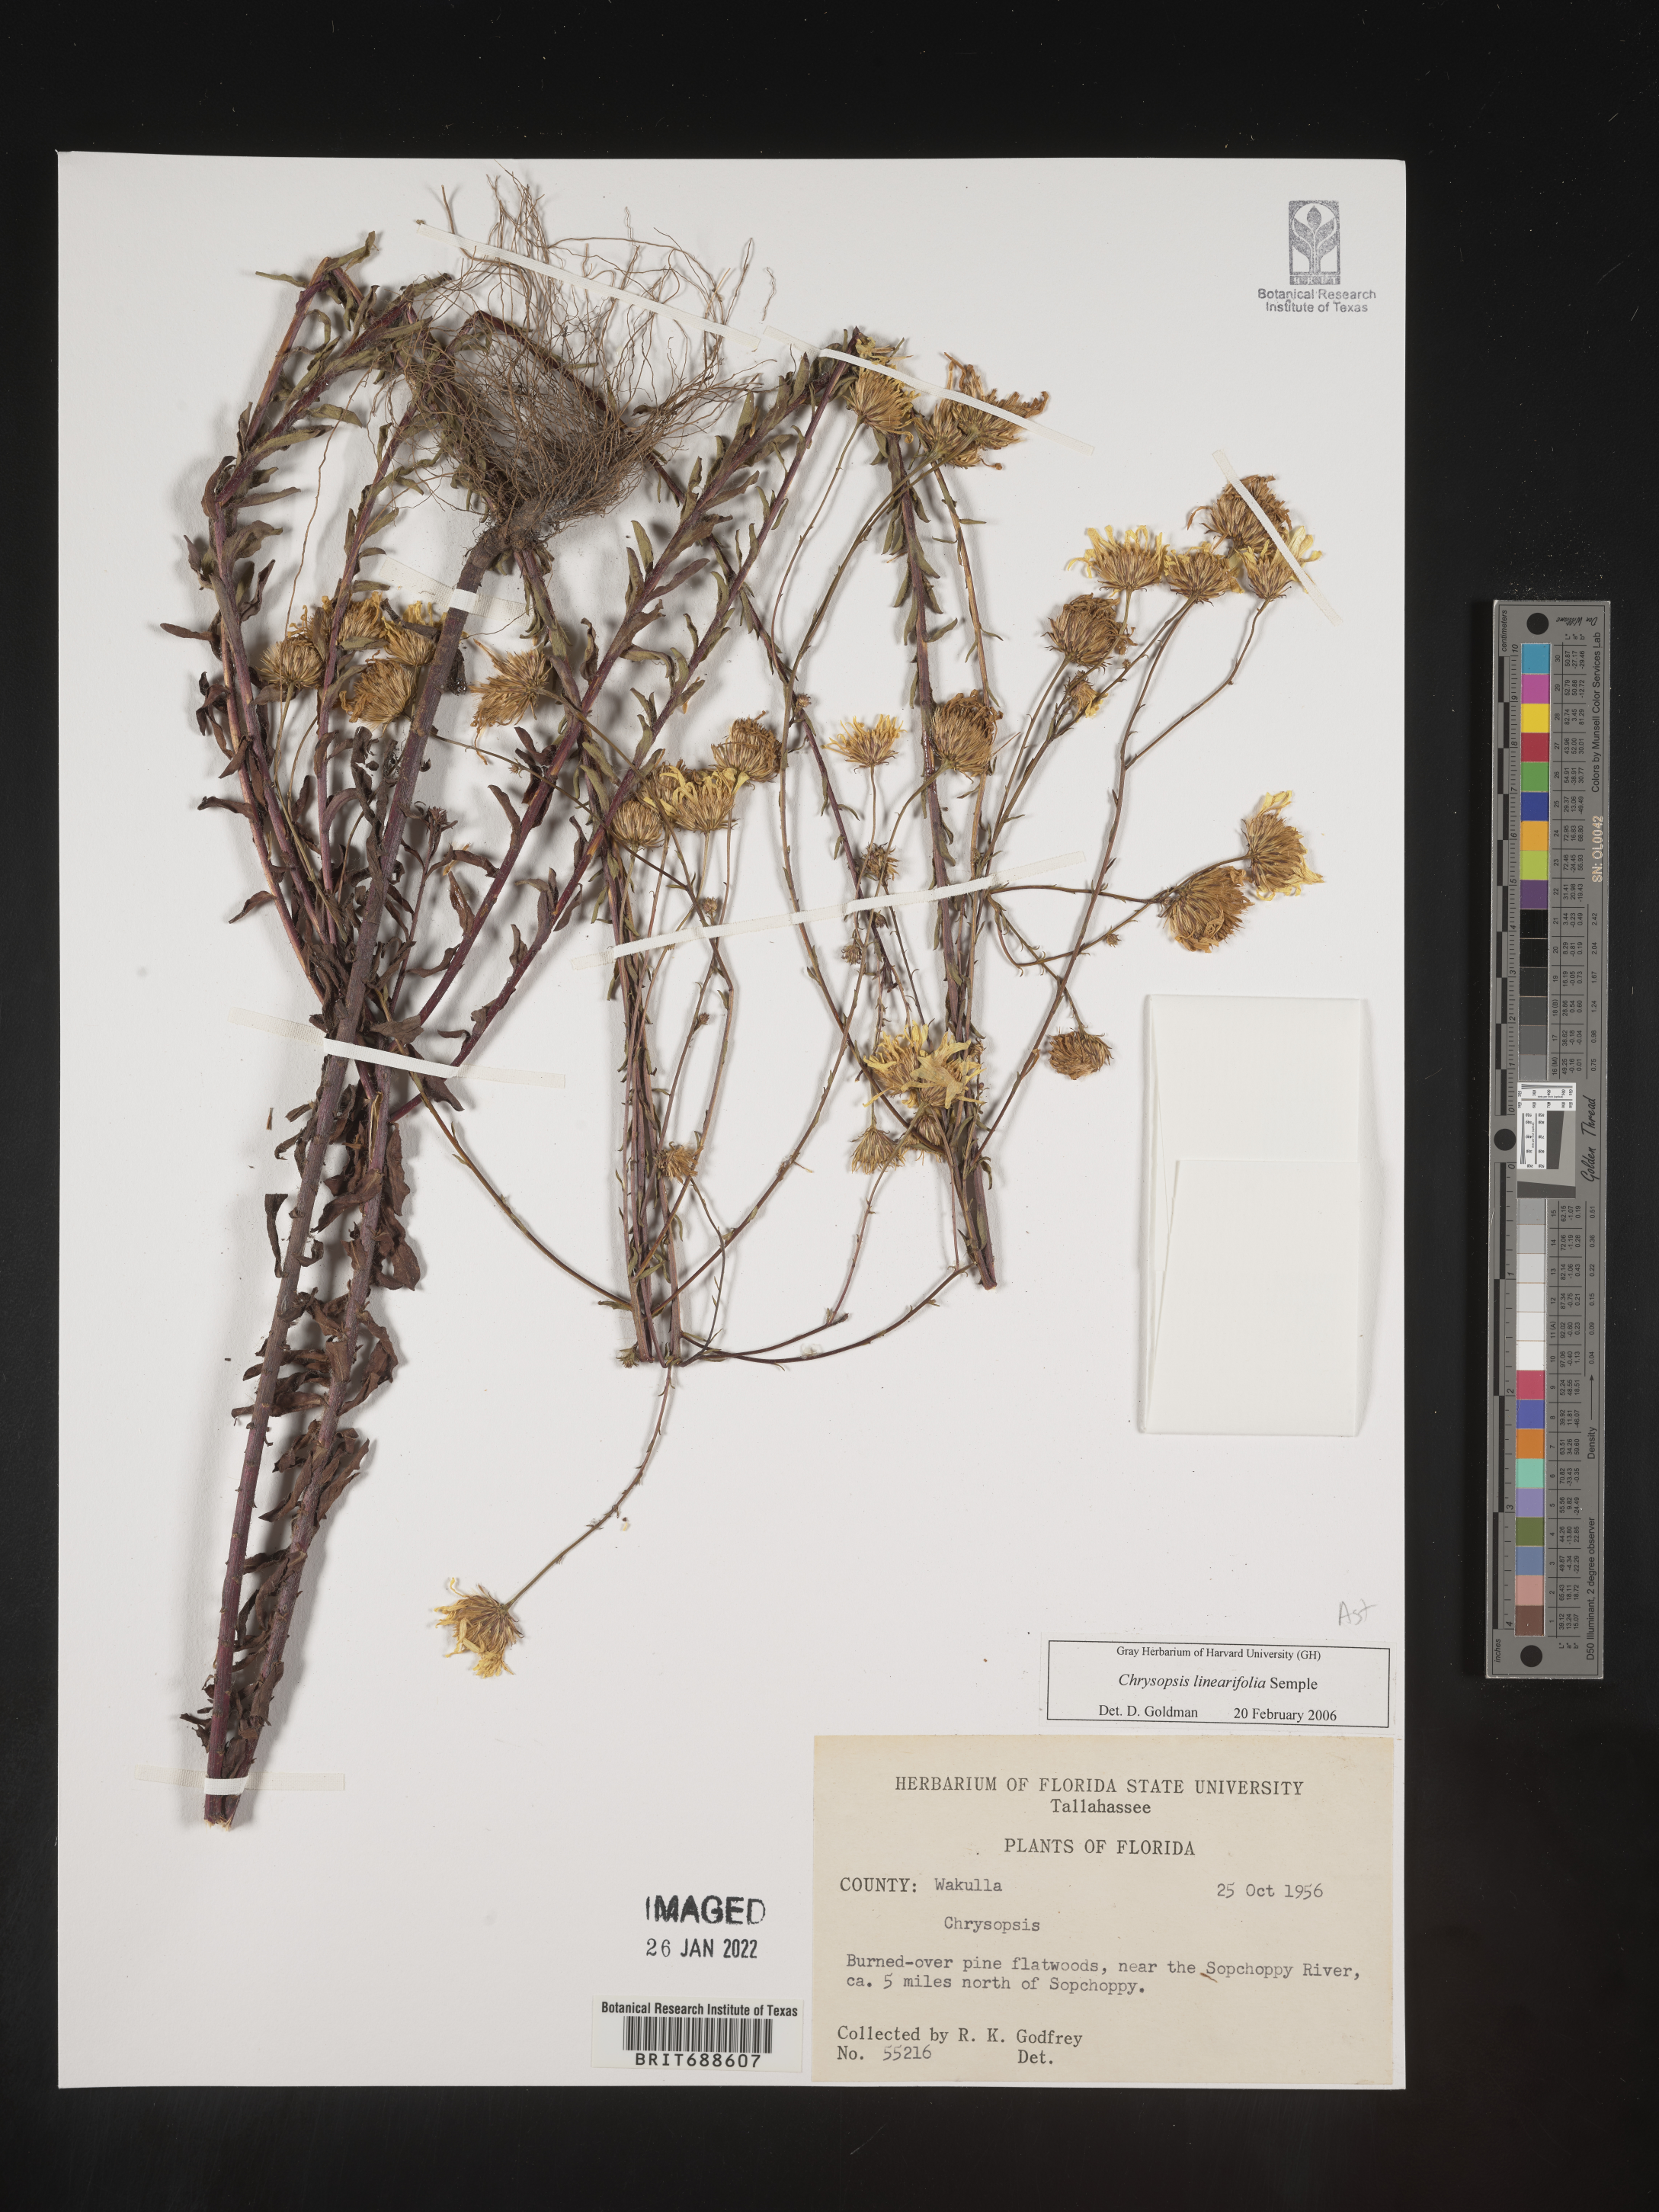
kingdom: Plantae
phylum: Tracheophyta
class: Magnoliopsida
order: Asterales
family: Asteraceae
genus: Chrysopsis
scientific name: Chrysopsis linearifolia
